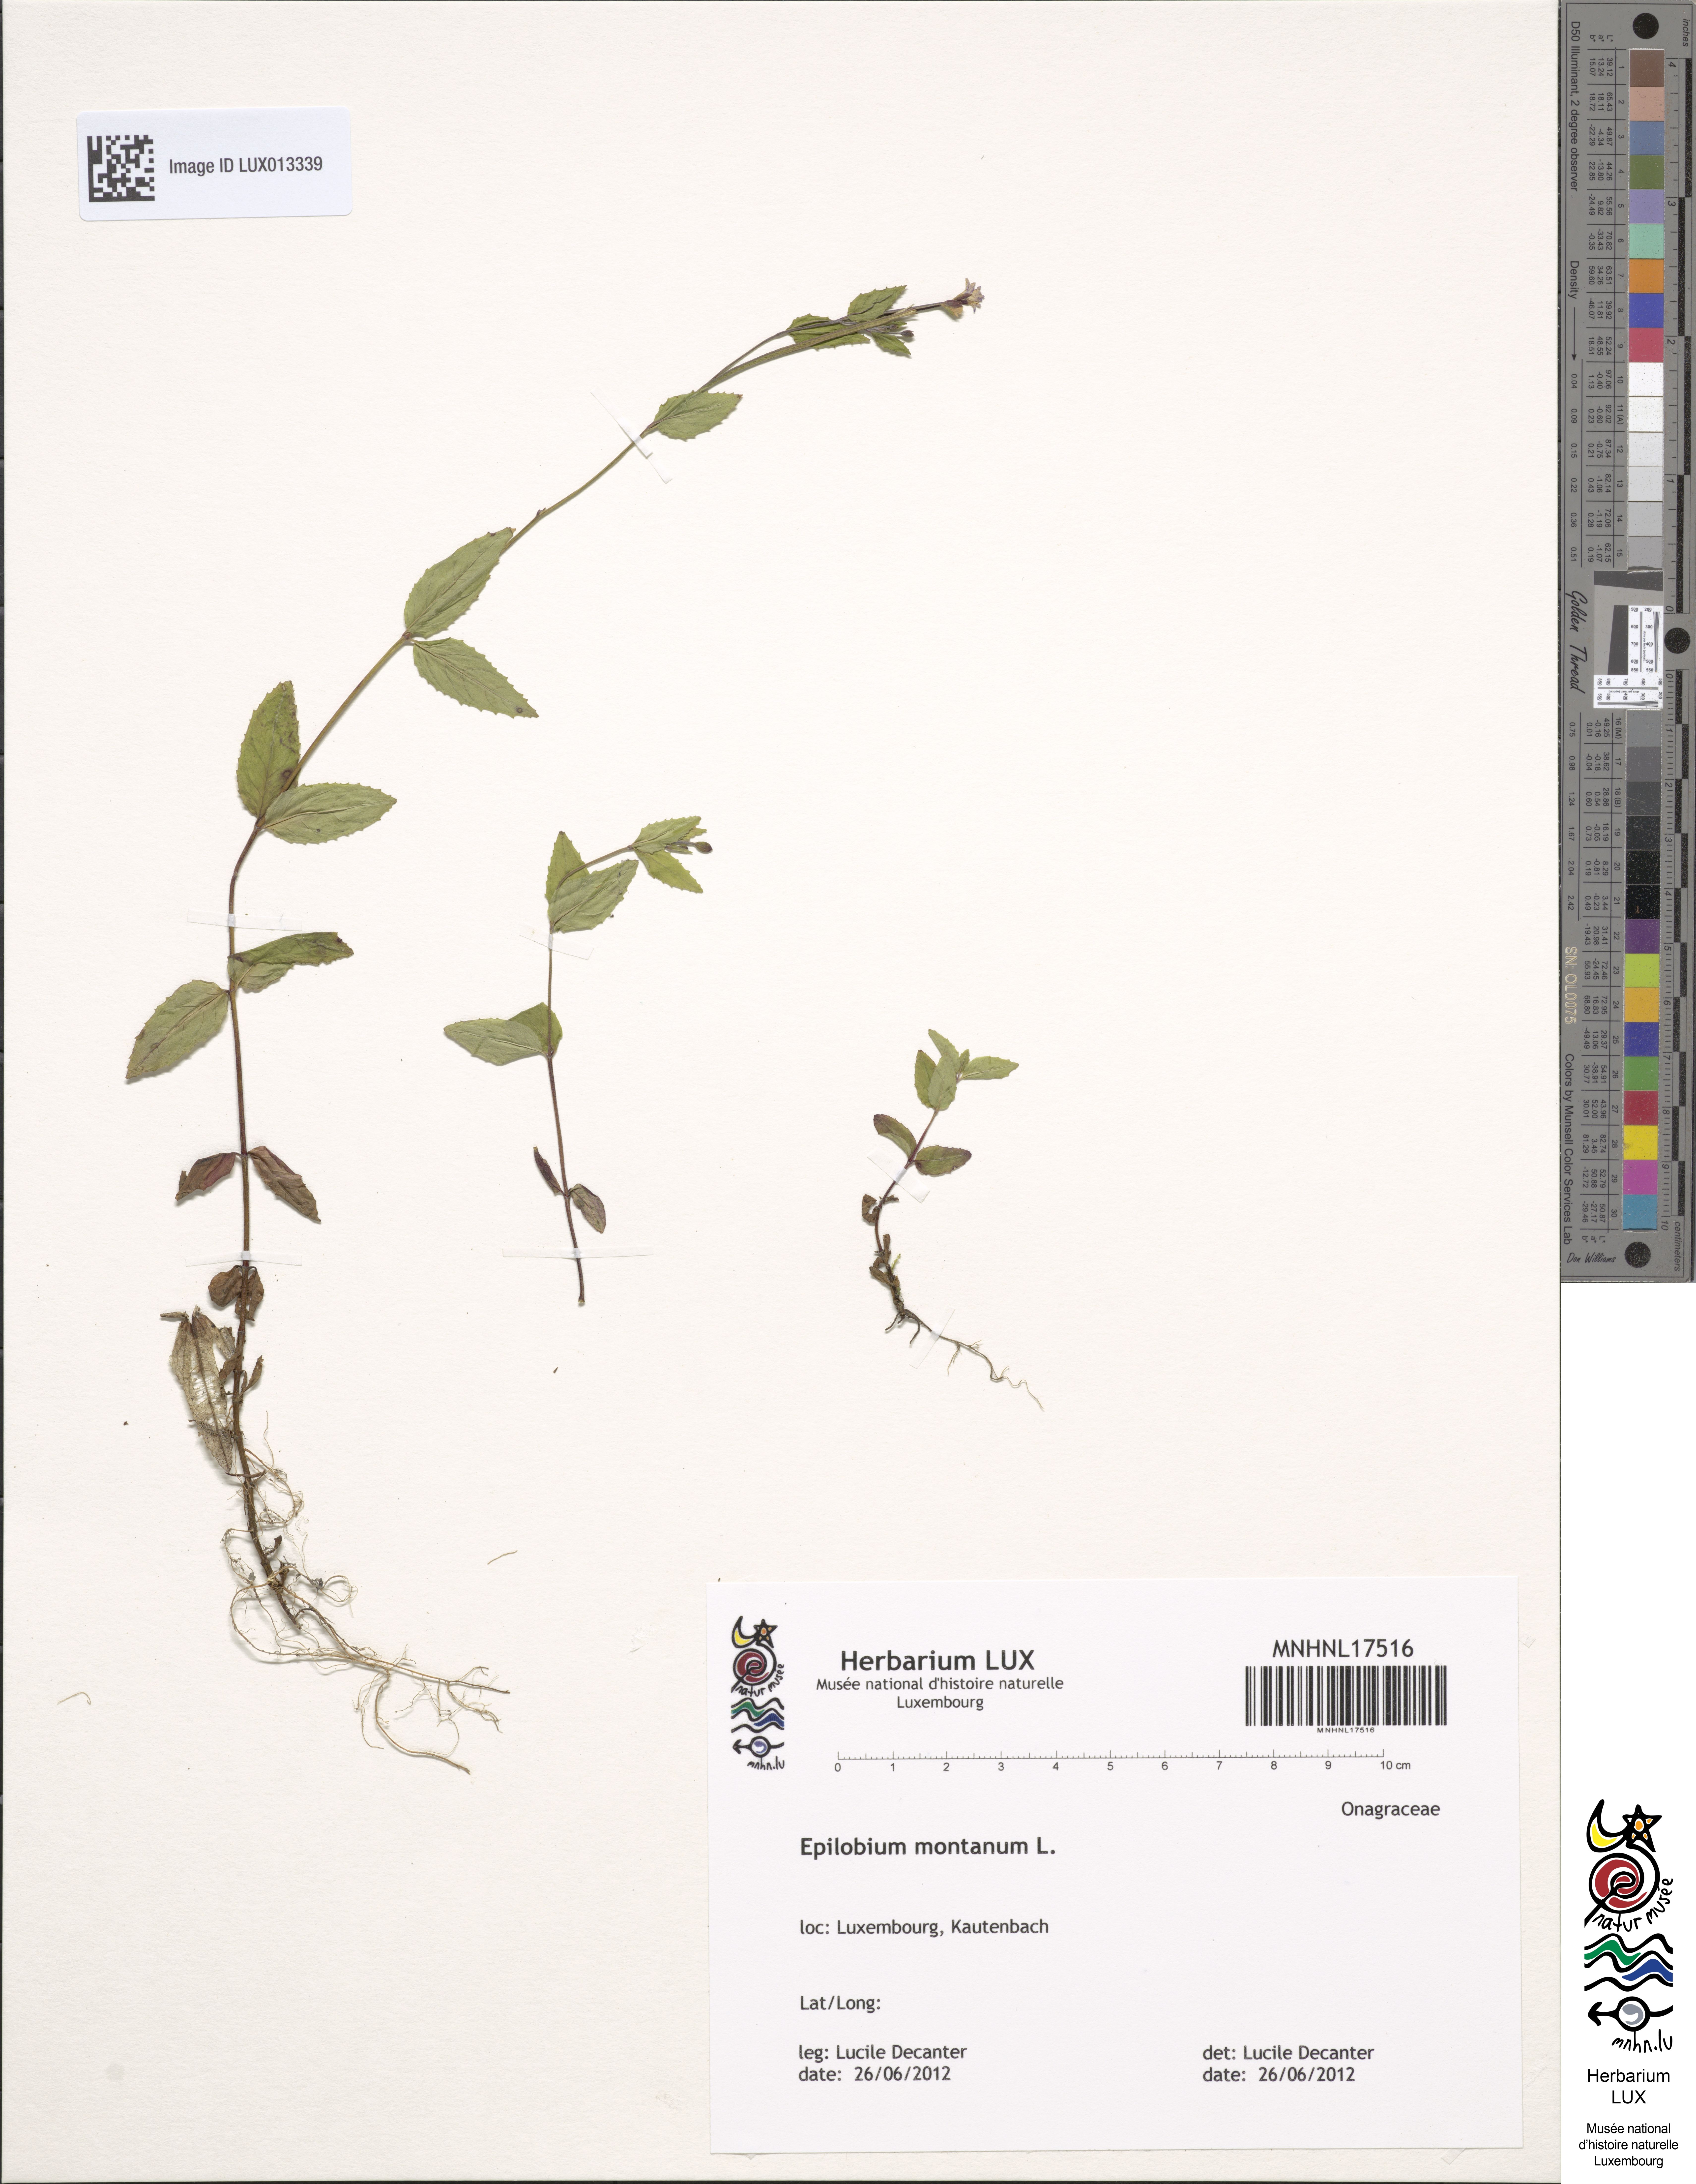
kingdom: Plantae
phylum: Tracheophyta
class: Magnoliopsida
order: Myrtales
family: Onagraceae
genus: Epilobium
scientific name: Epilobium montanum
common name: Broad-leaved willowherb
